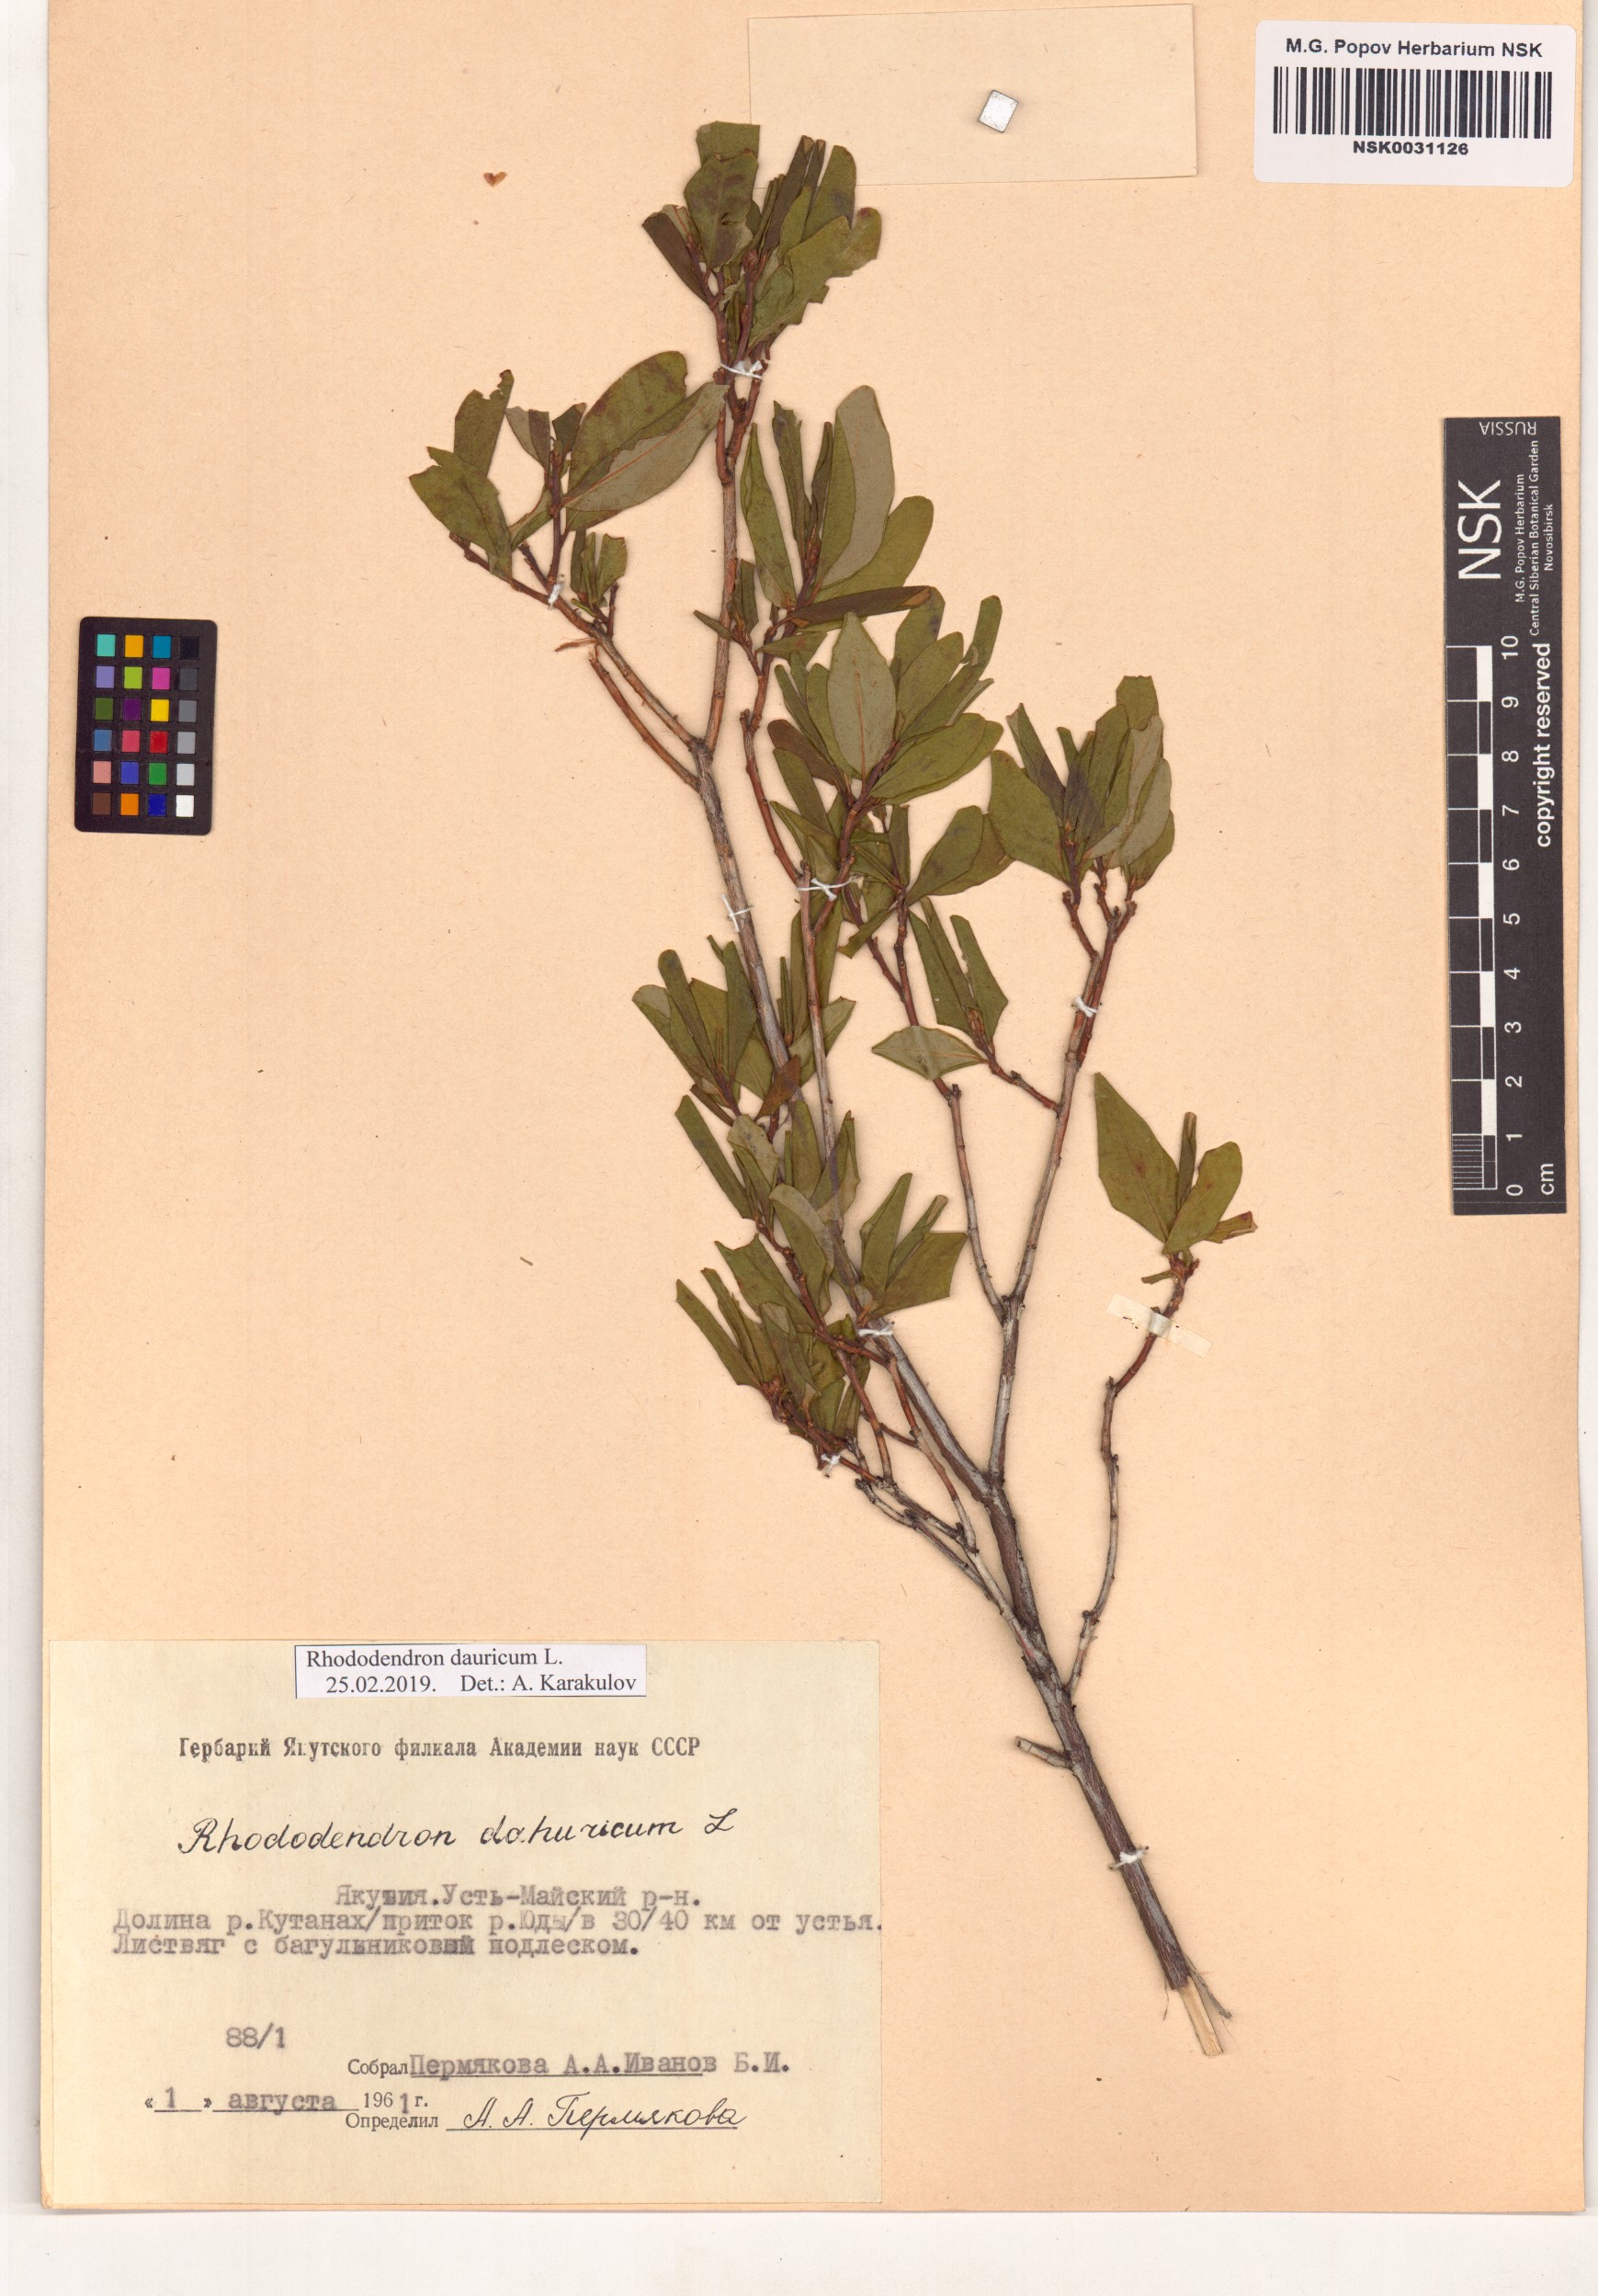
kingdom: Plantae
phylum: Tracheophyta
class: Magnoliopsida
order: Ericales
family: Ericaceae
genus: Rhododendron
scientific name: Rhododendron dauricum
